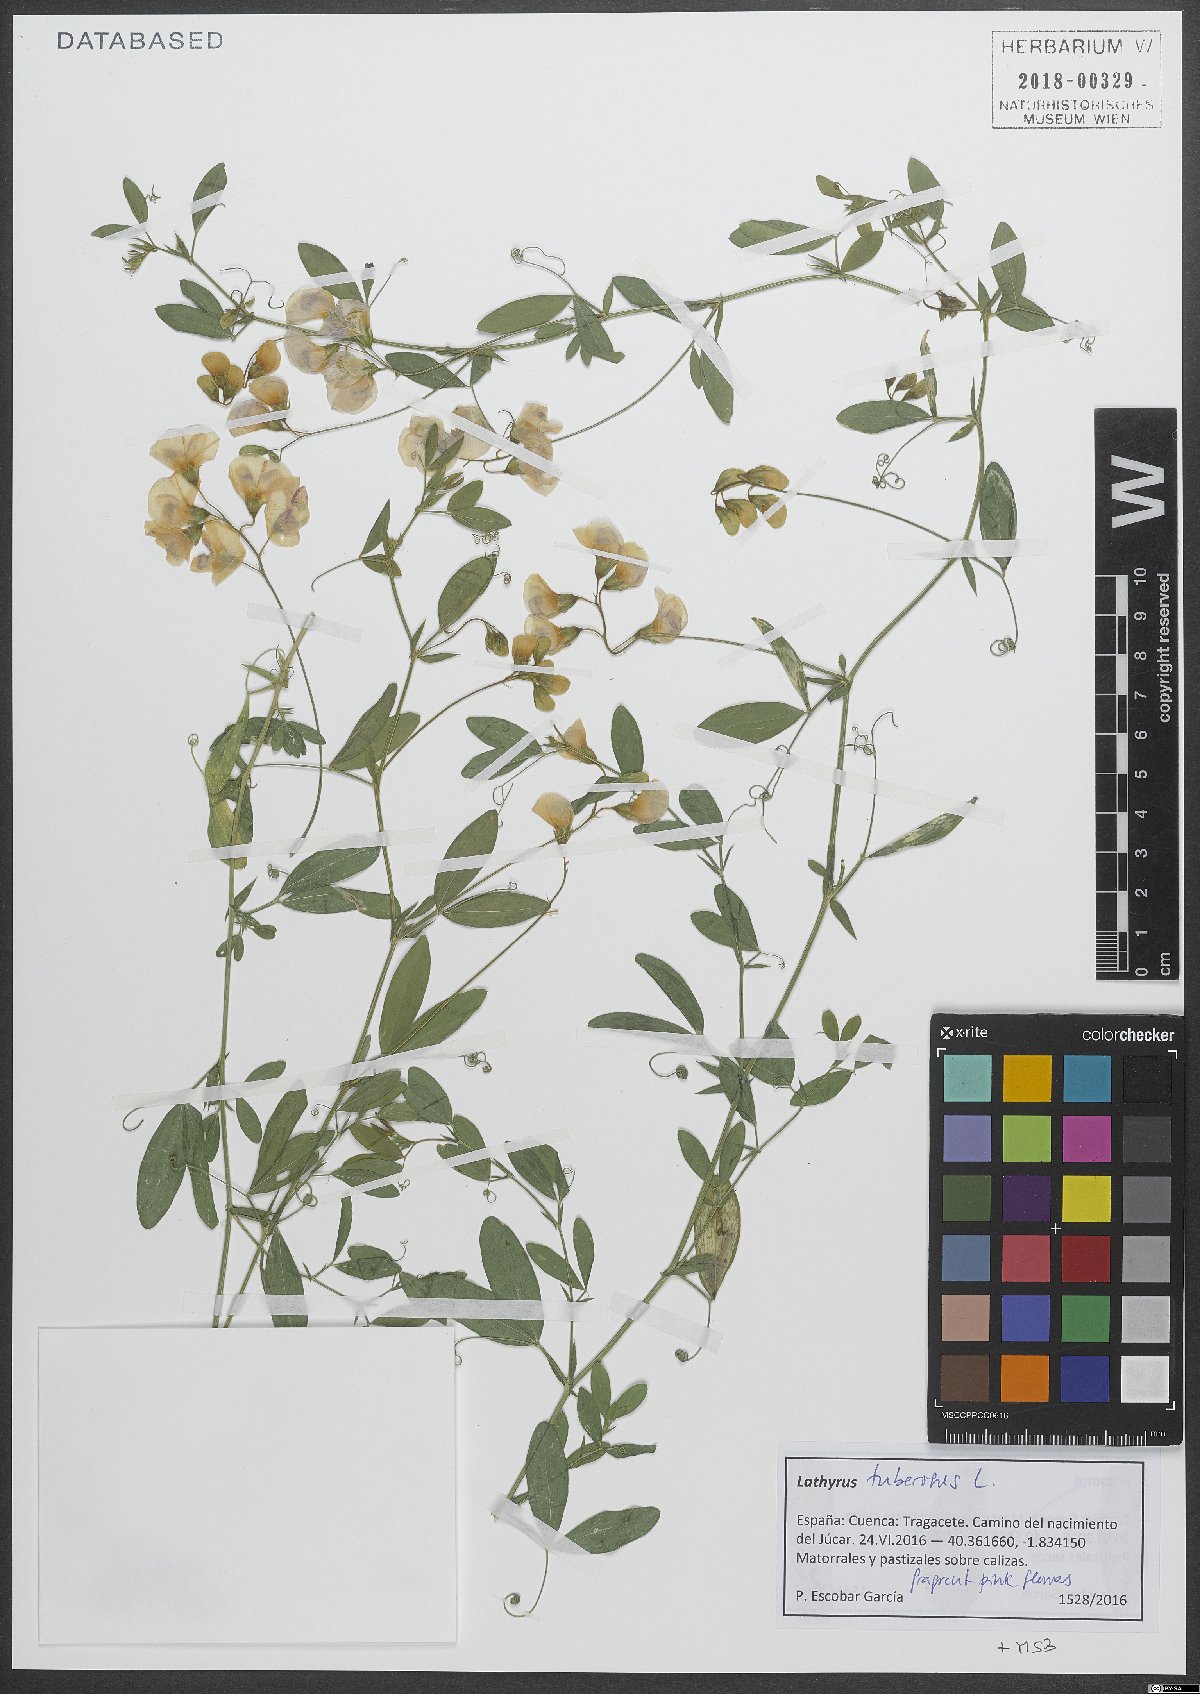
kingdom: Plantae
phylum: Tracheophyta
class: Magnoliopsida
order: Fabales
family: Fabaceae
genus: Lathyrus
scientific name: Lathyrus tuberosus
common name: Tuberous pea
